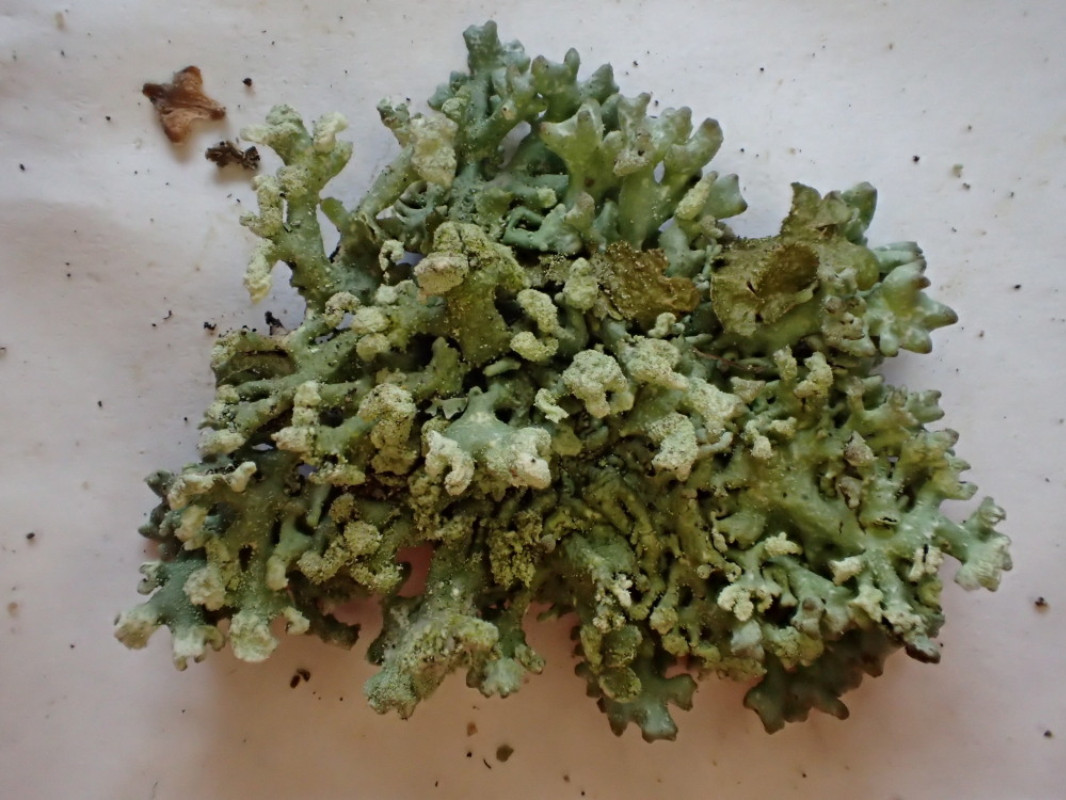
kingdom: Fungi
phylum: Ascomycota
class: Lecanoromycetes
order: Lecanorales
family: Parmeliaceae
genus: Hypogymnia
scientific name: Hypogymnia tubulosa
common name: finger-kvistlav
